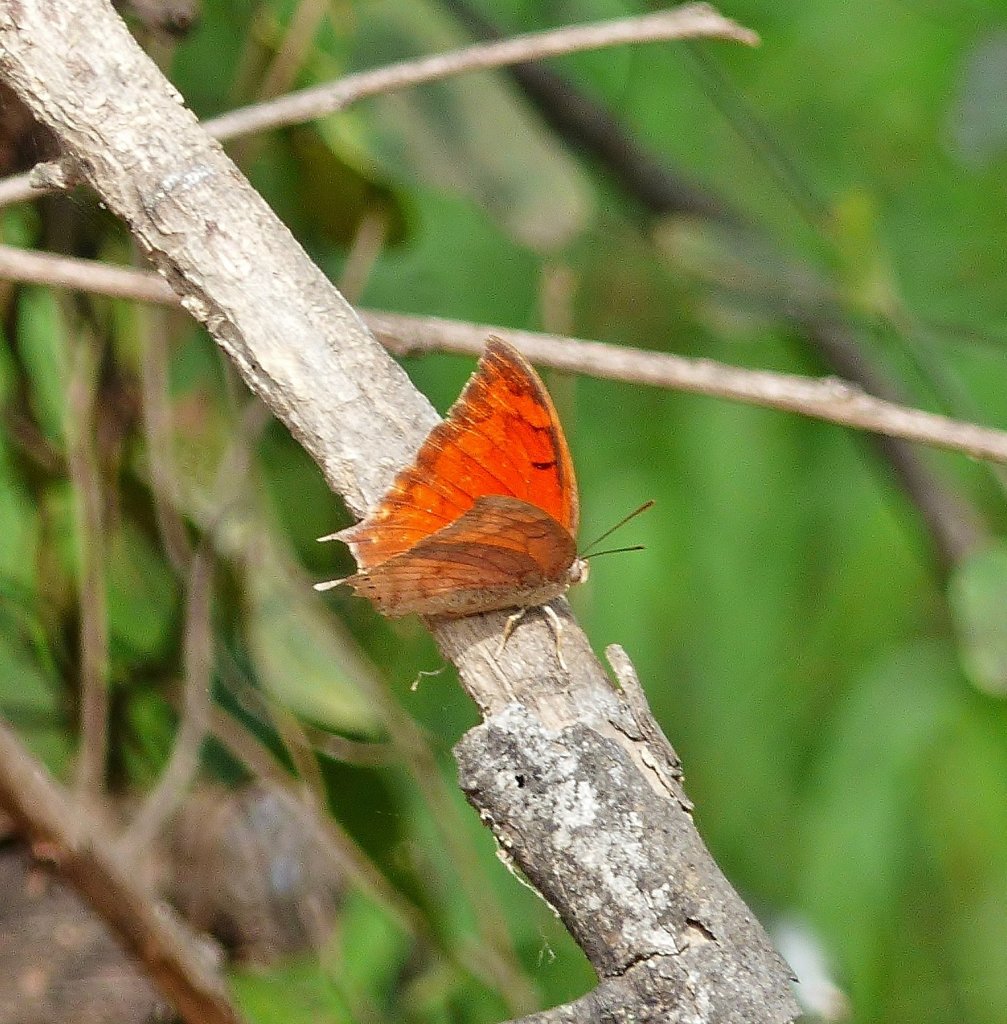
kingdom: Animalia
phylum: Arthropoda
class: Insecta
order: Lepidoptera
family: Nymphalidae
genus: Anaea
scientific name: Anaea aidea
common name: Tropical Leafwing
